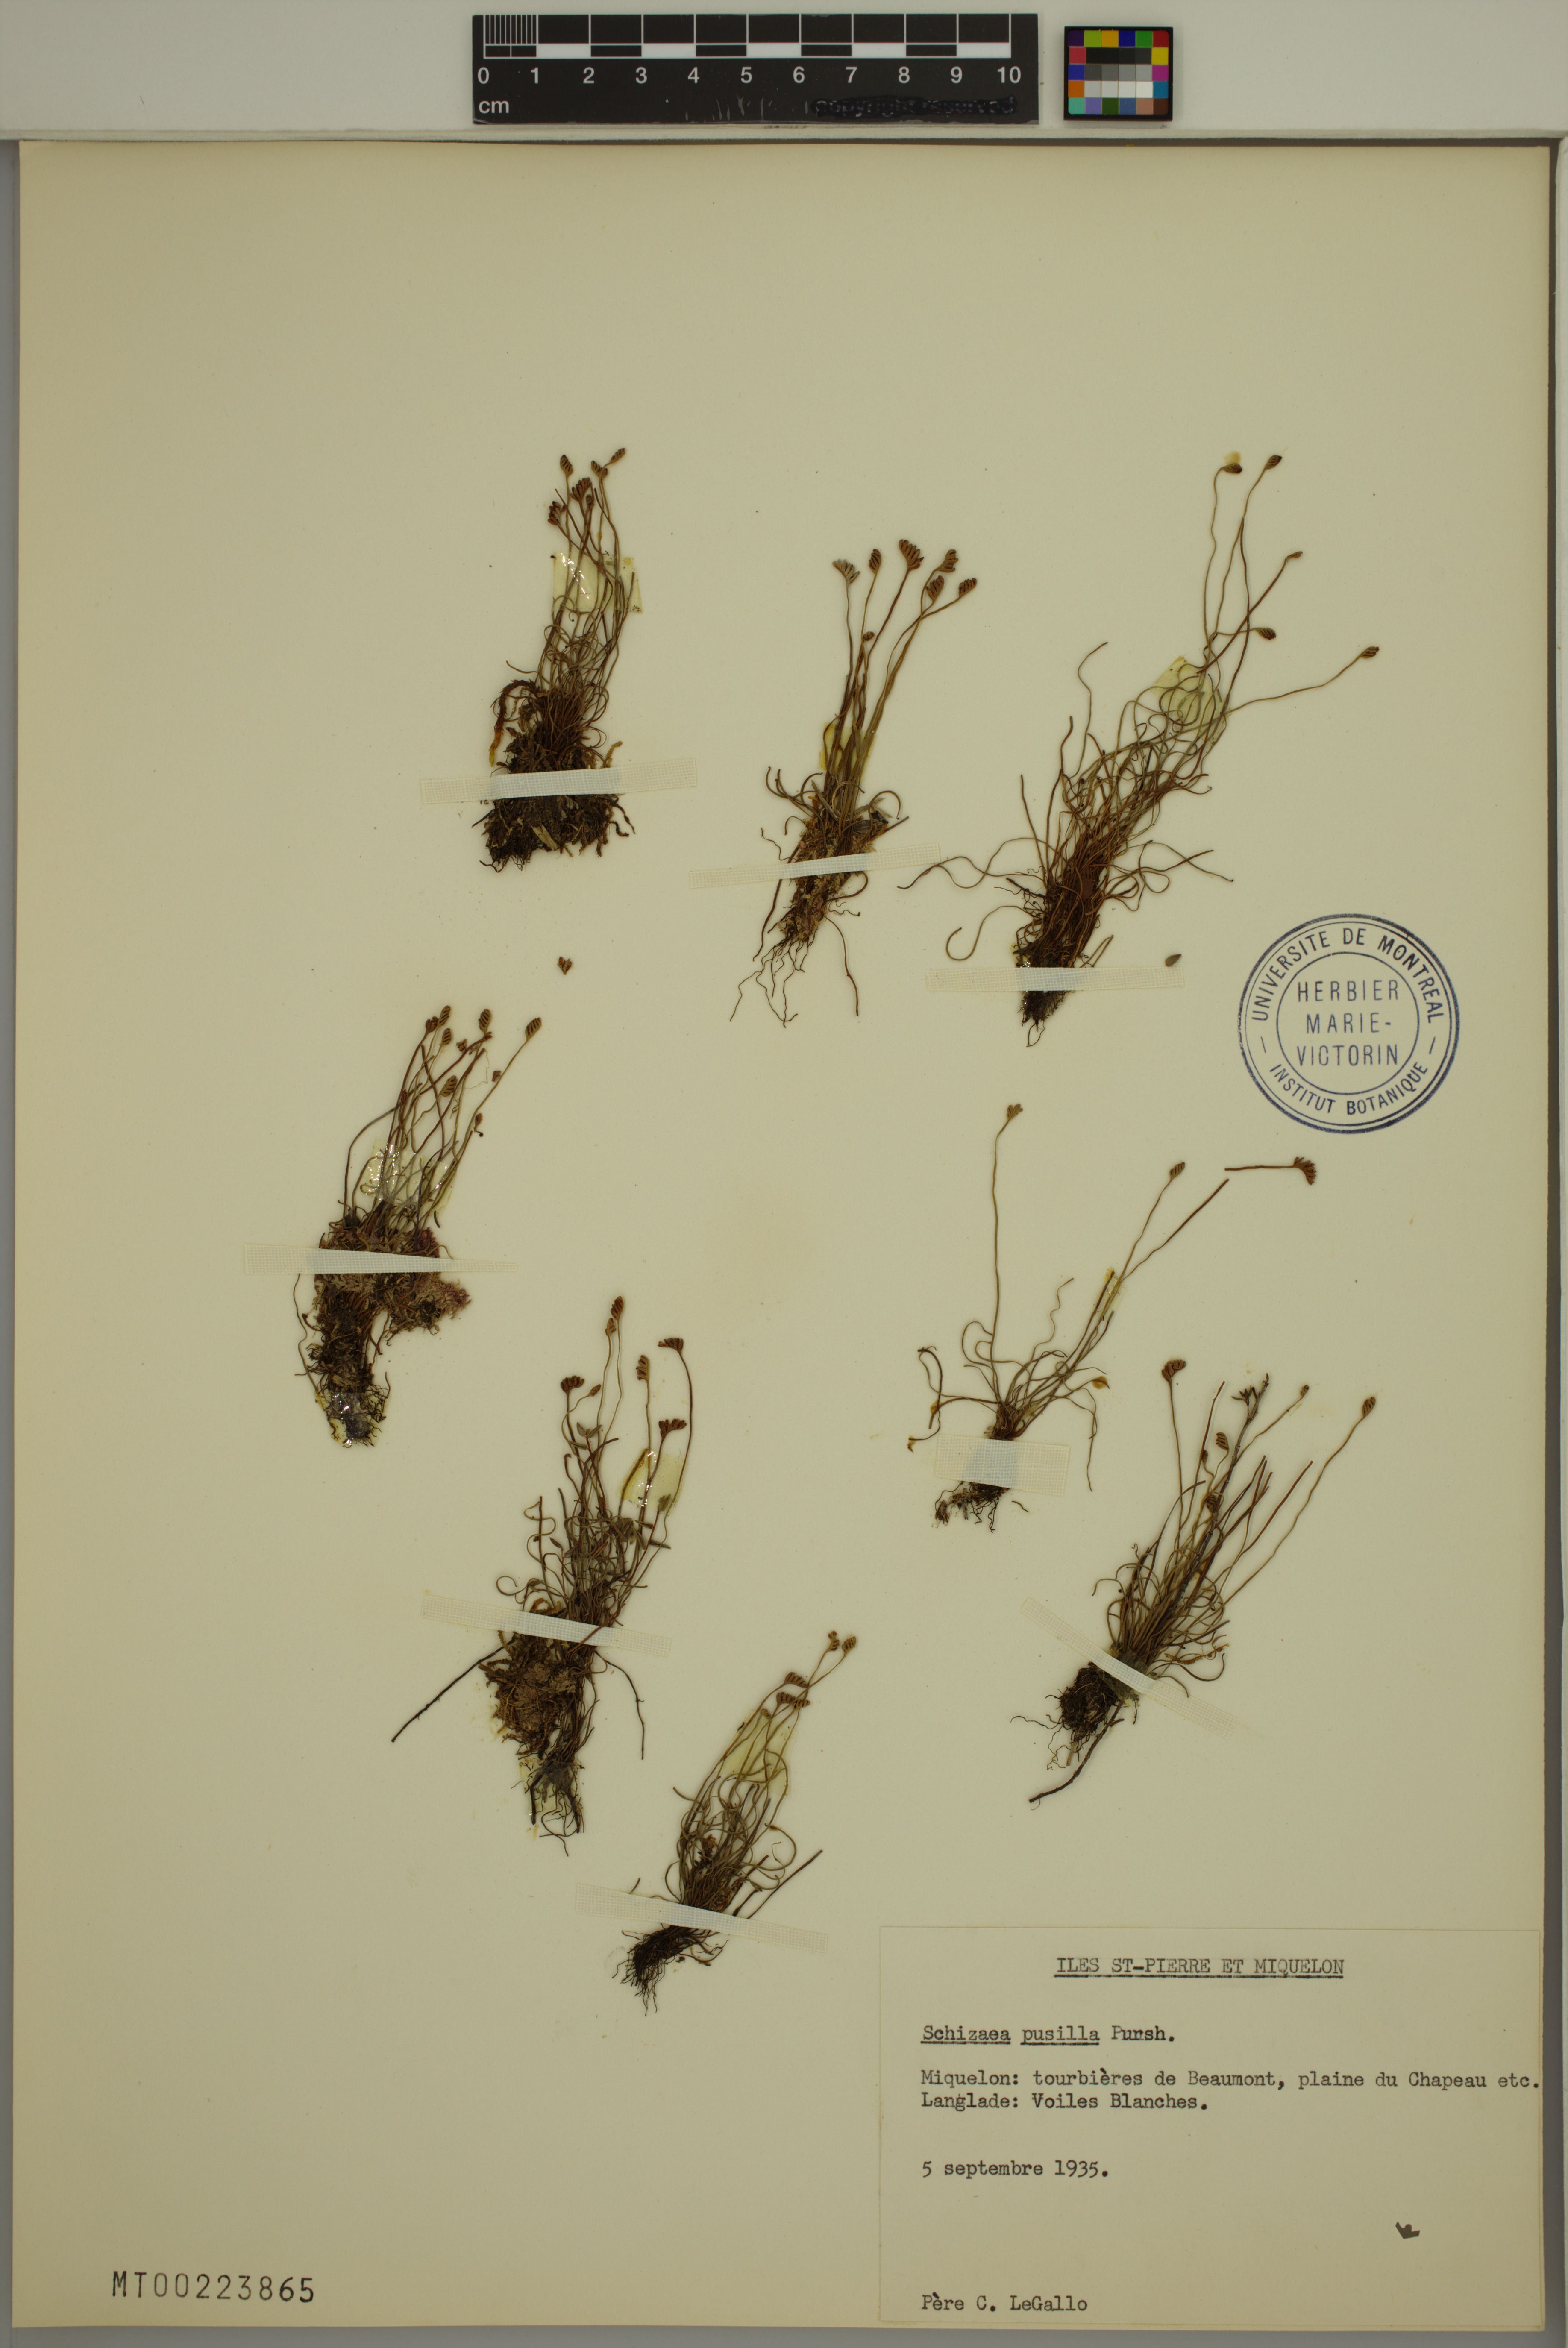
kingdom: Plantae
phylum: Tracheophyta
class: Polypodiopsida
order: Schizaeales
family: Schizaeaceae
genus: Schizaea
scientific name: Schizaea pusilla
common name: Curly-grass fern
